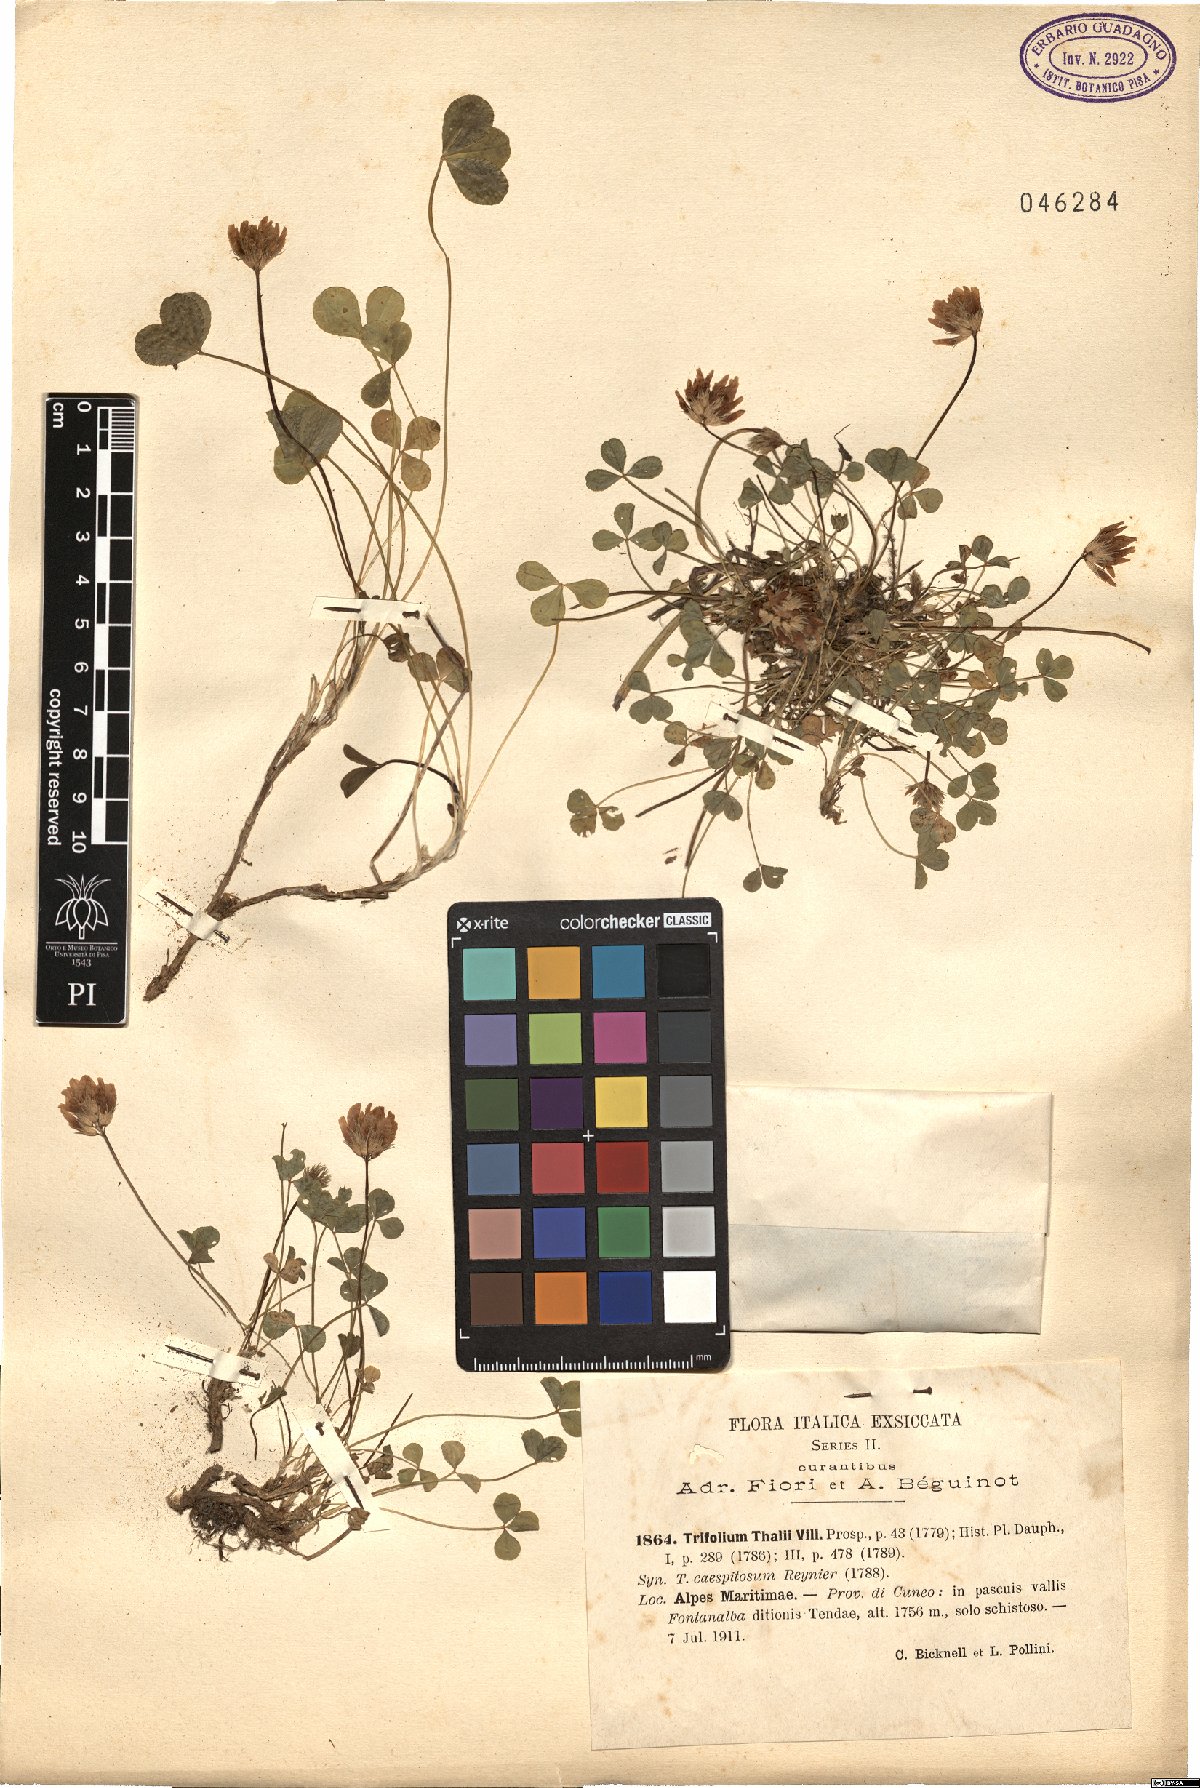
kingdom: Plantae
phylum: Tracheophyta
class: Magnoliopsida
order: Fabales
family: Fabaceae
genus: Trifolium
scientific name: Trifolium thalii
